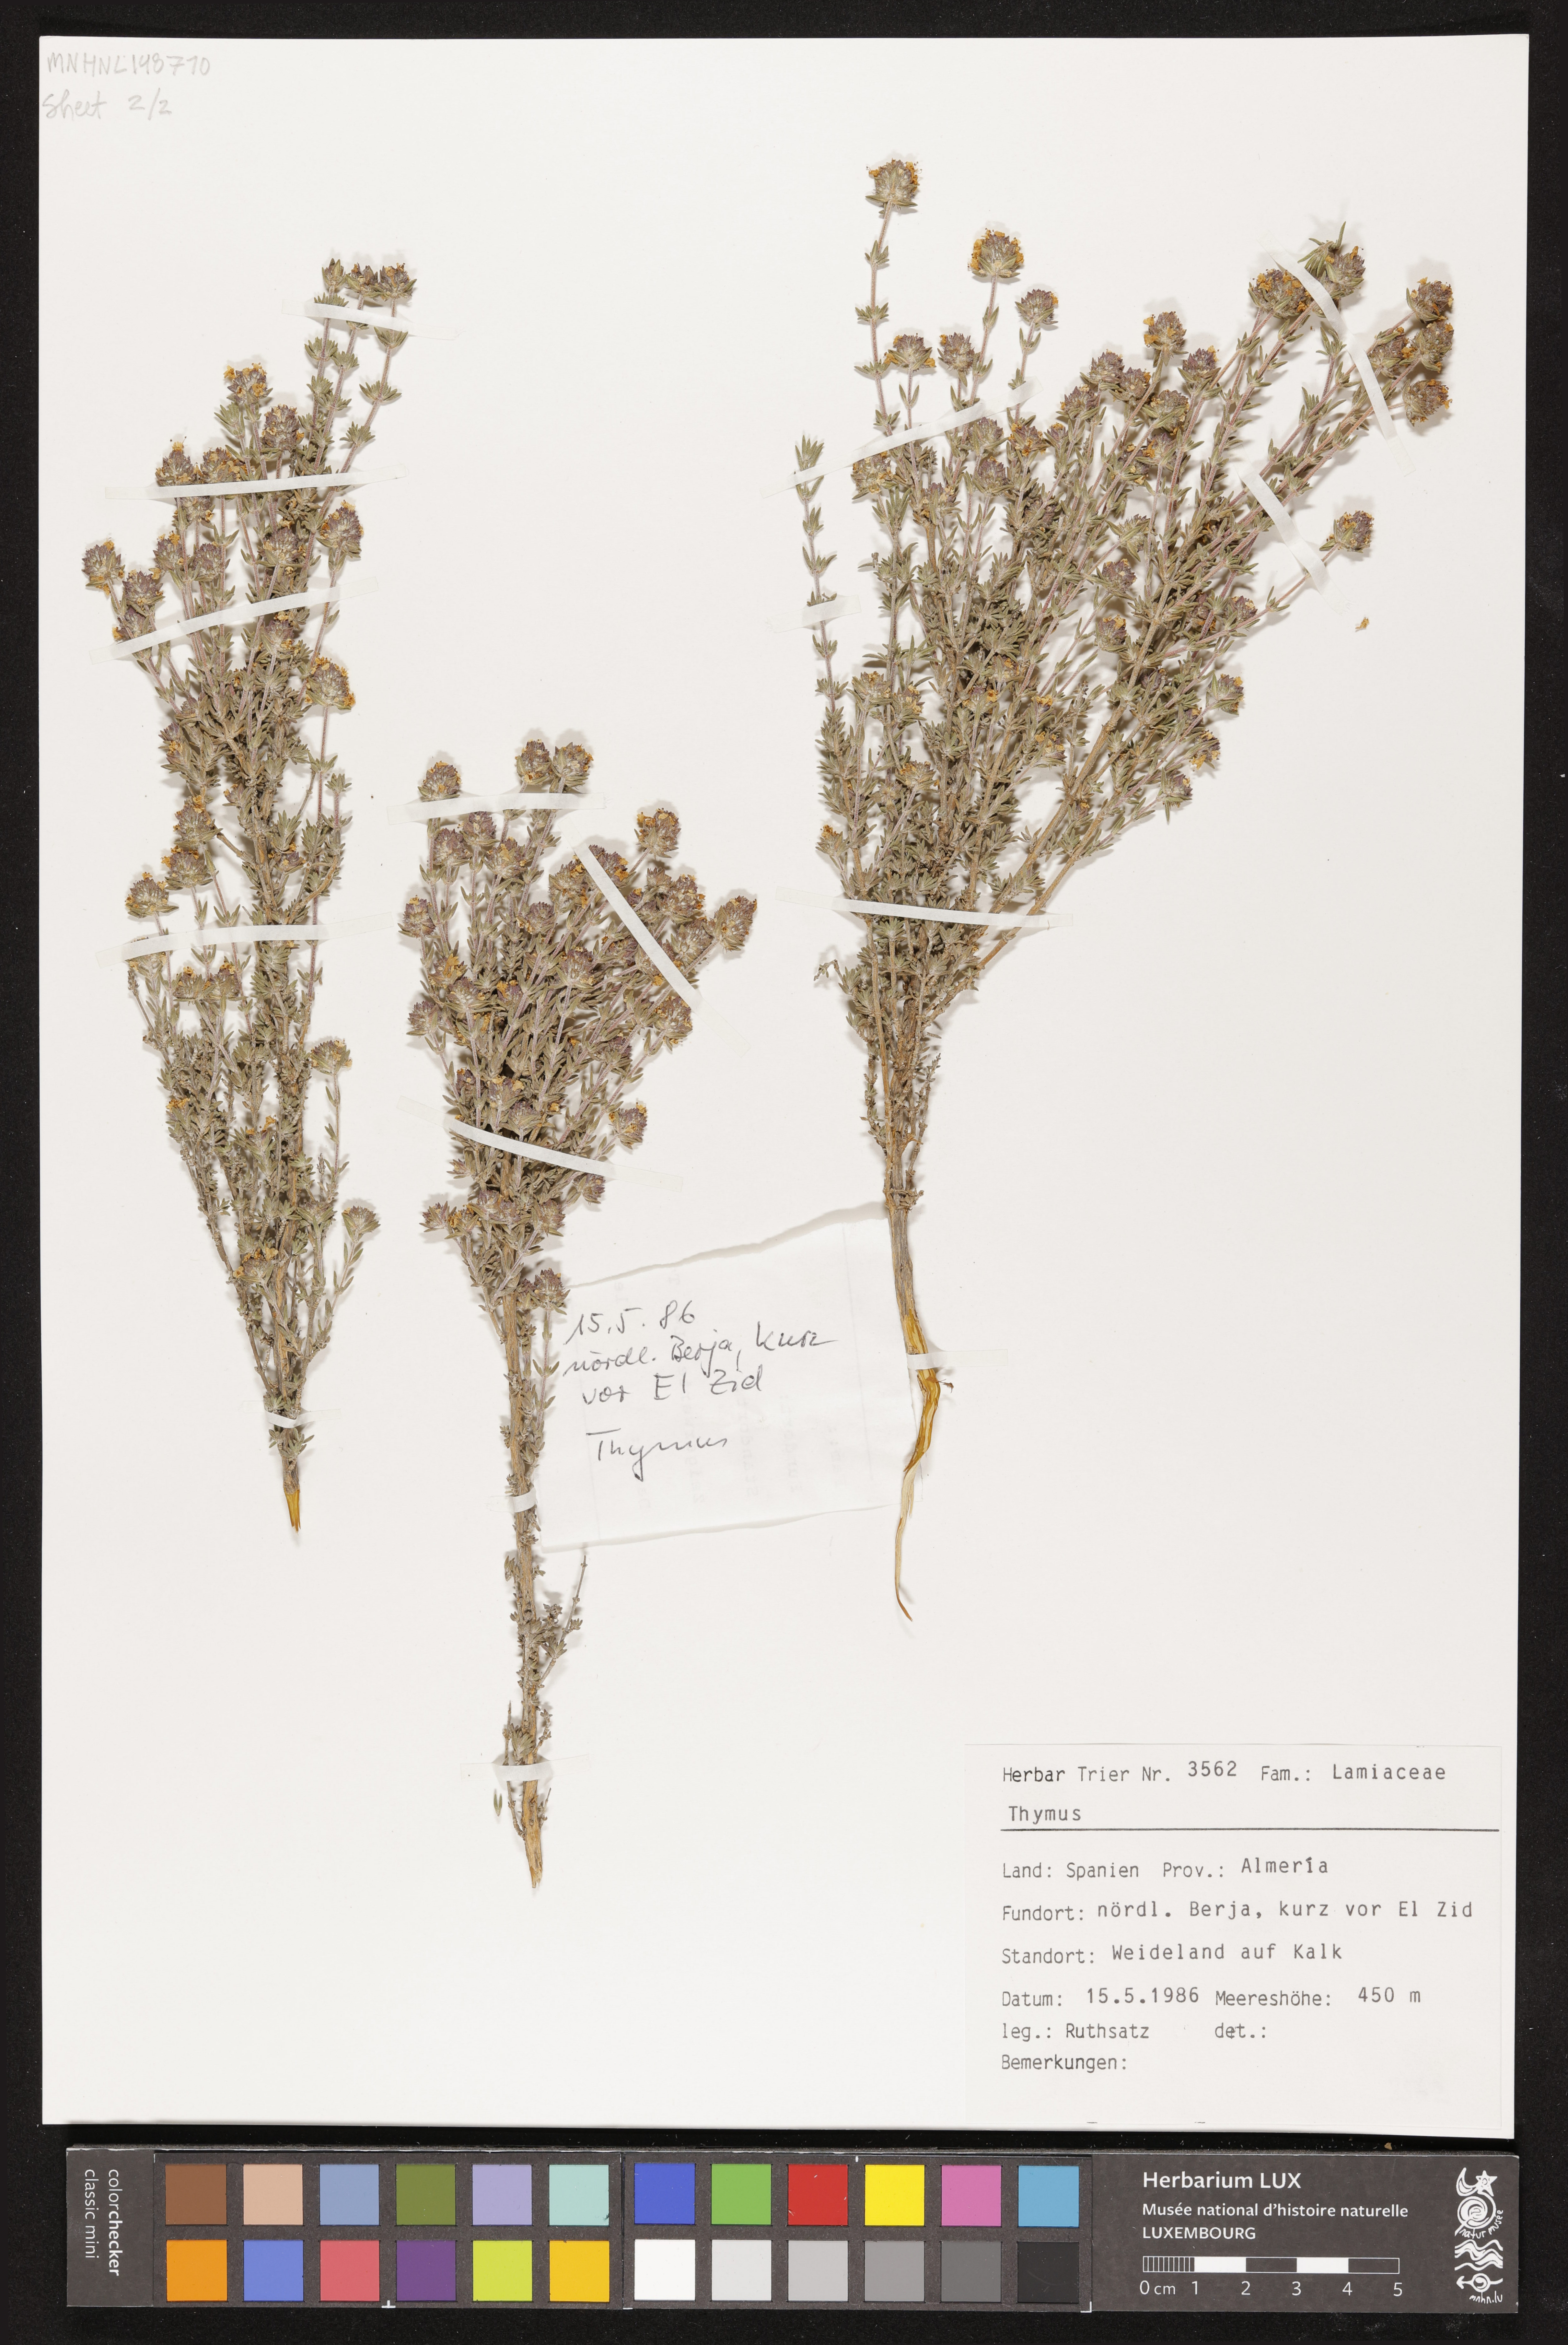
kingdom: Plantae
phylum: Tracheophyta
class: Magnoliopsida
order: Lamiales
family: Lamiaceae
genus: Thymus
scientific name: Thymus
